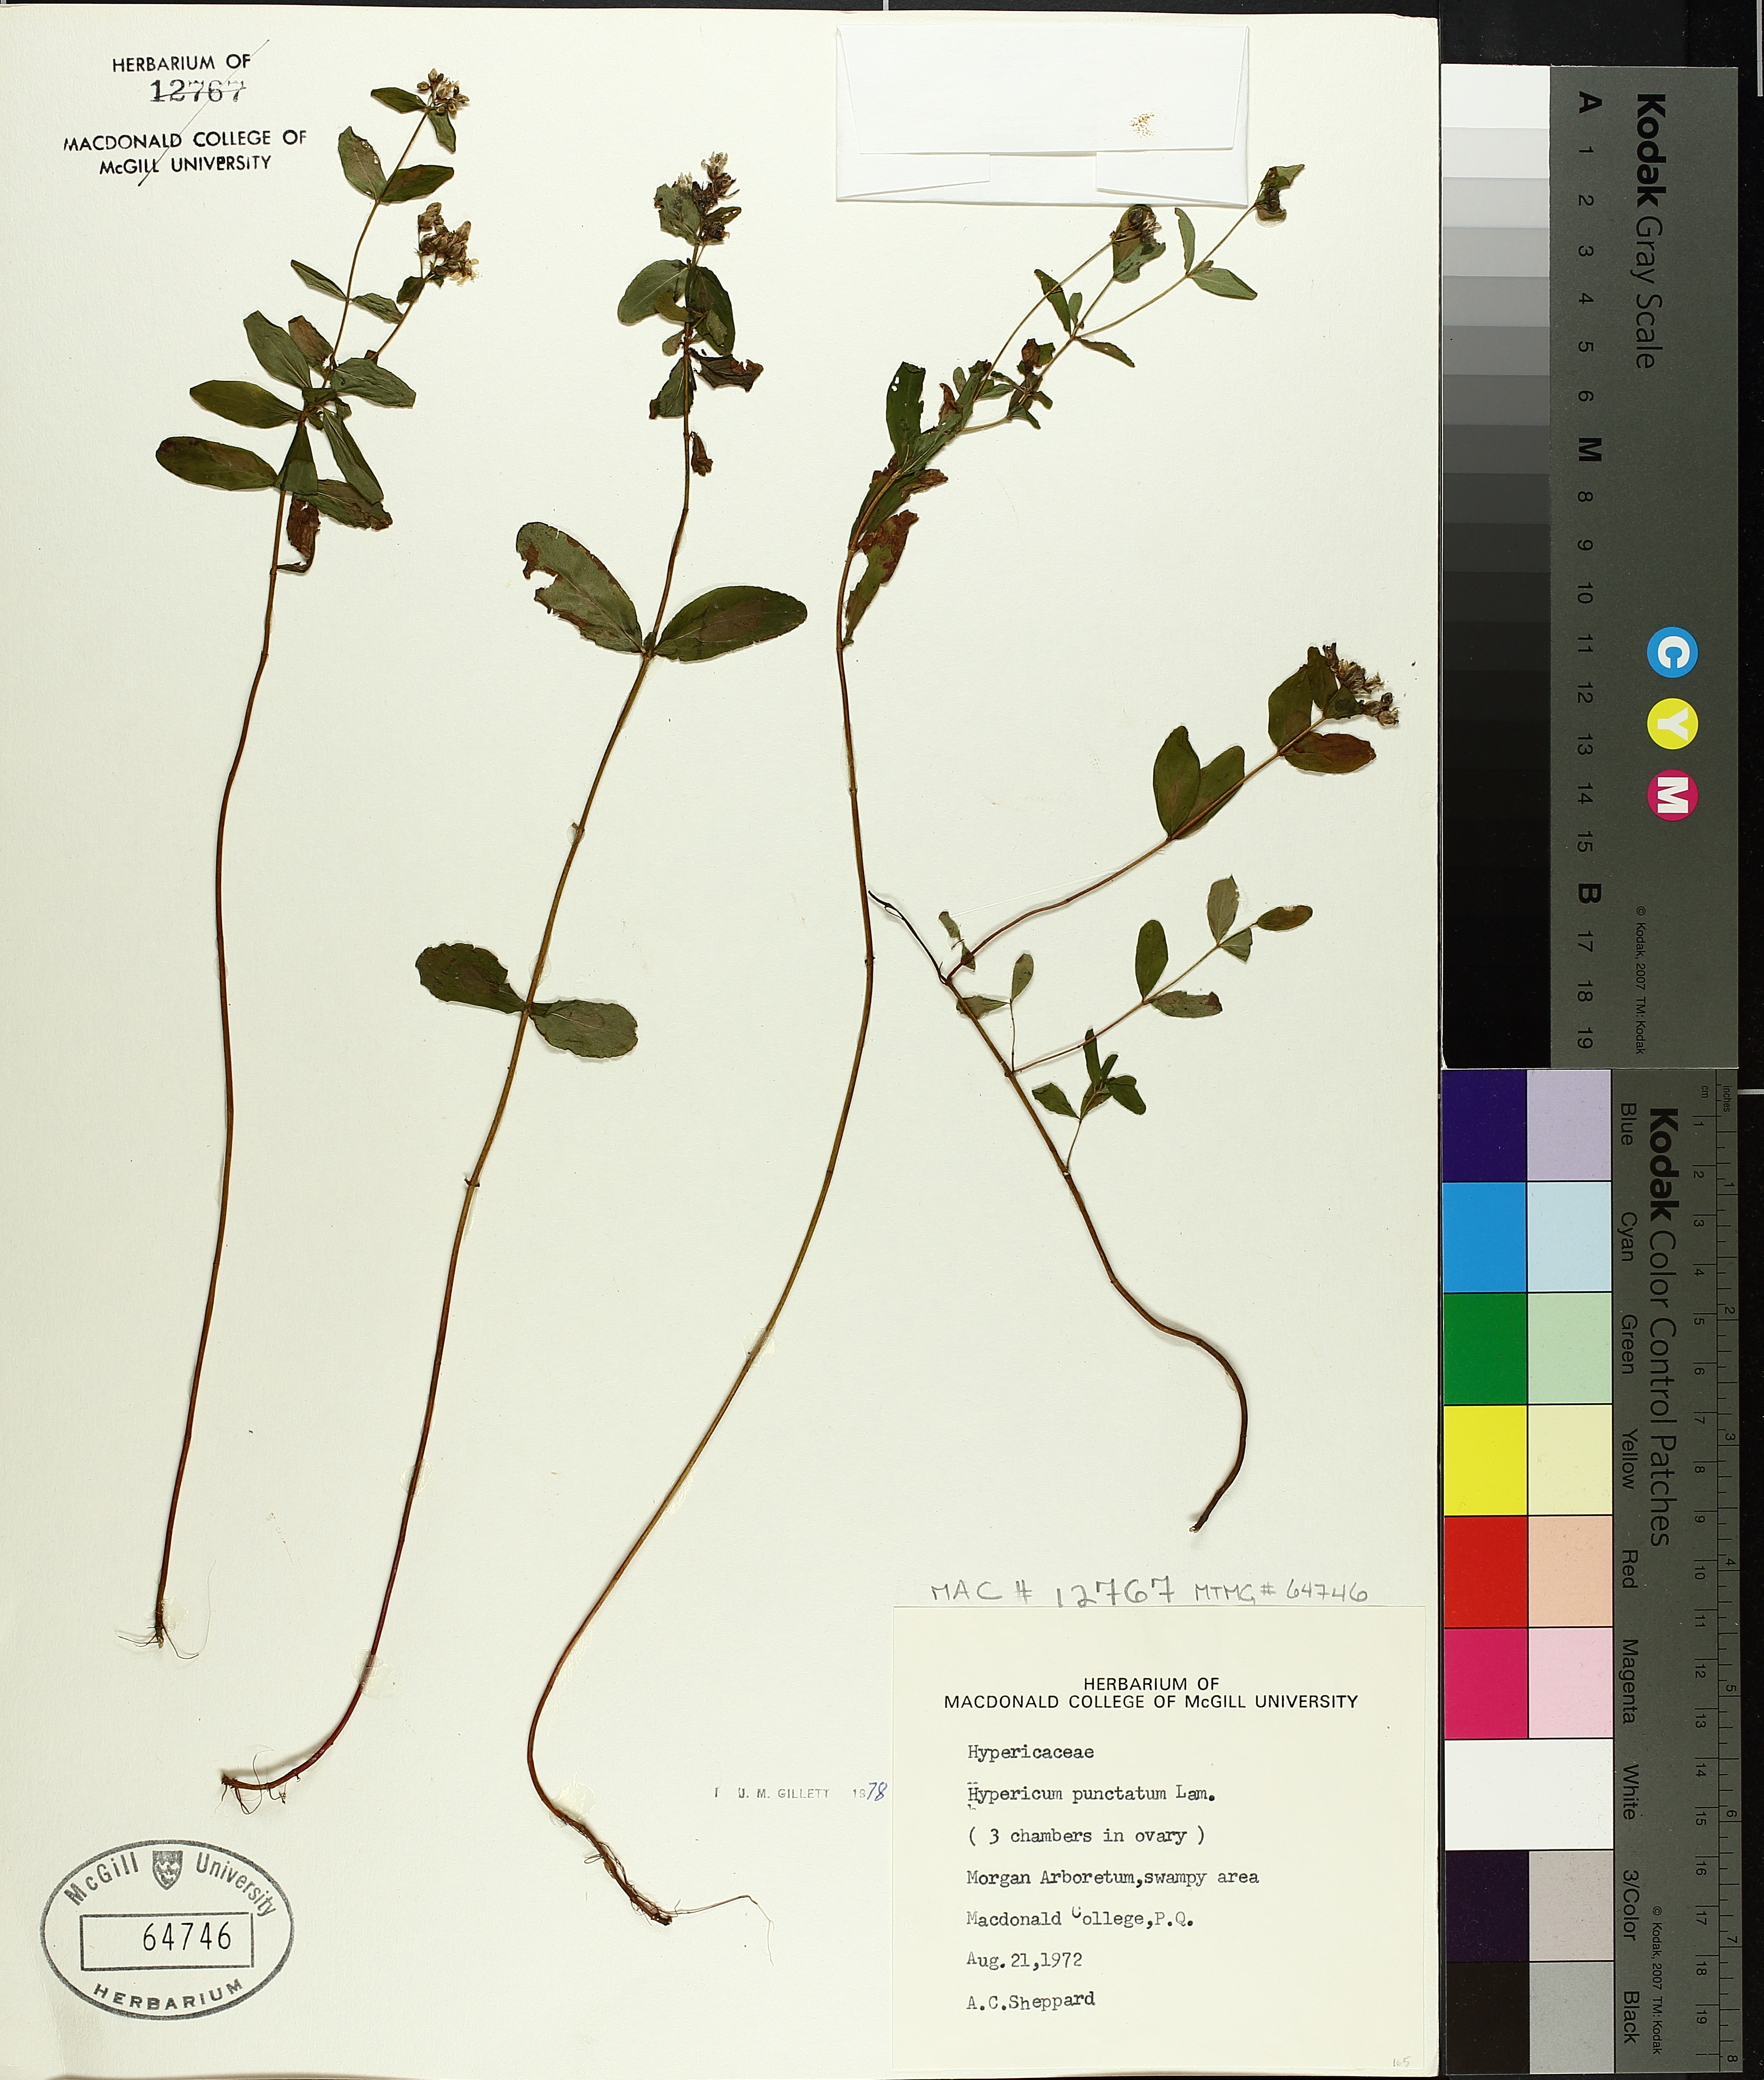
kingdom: Plantae
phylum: Tracheophyta
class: Magnoliopsida
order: Malpighiales
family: Hypericaceae
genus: Hypericum
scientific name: Hypericum punctatum
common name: Spotted st. john's-wort
